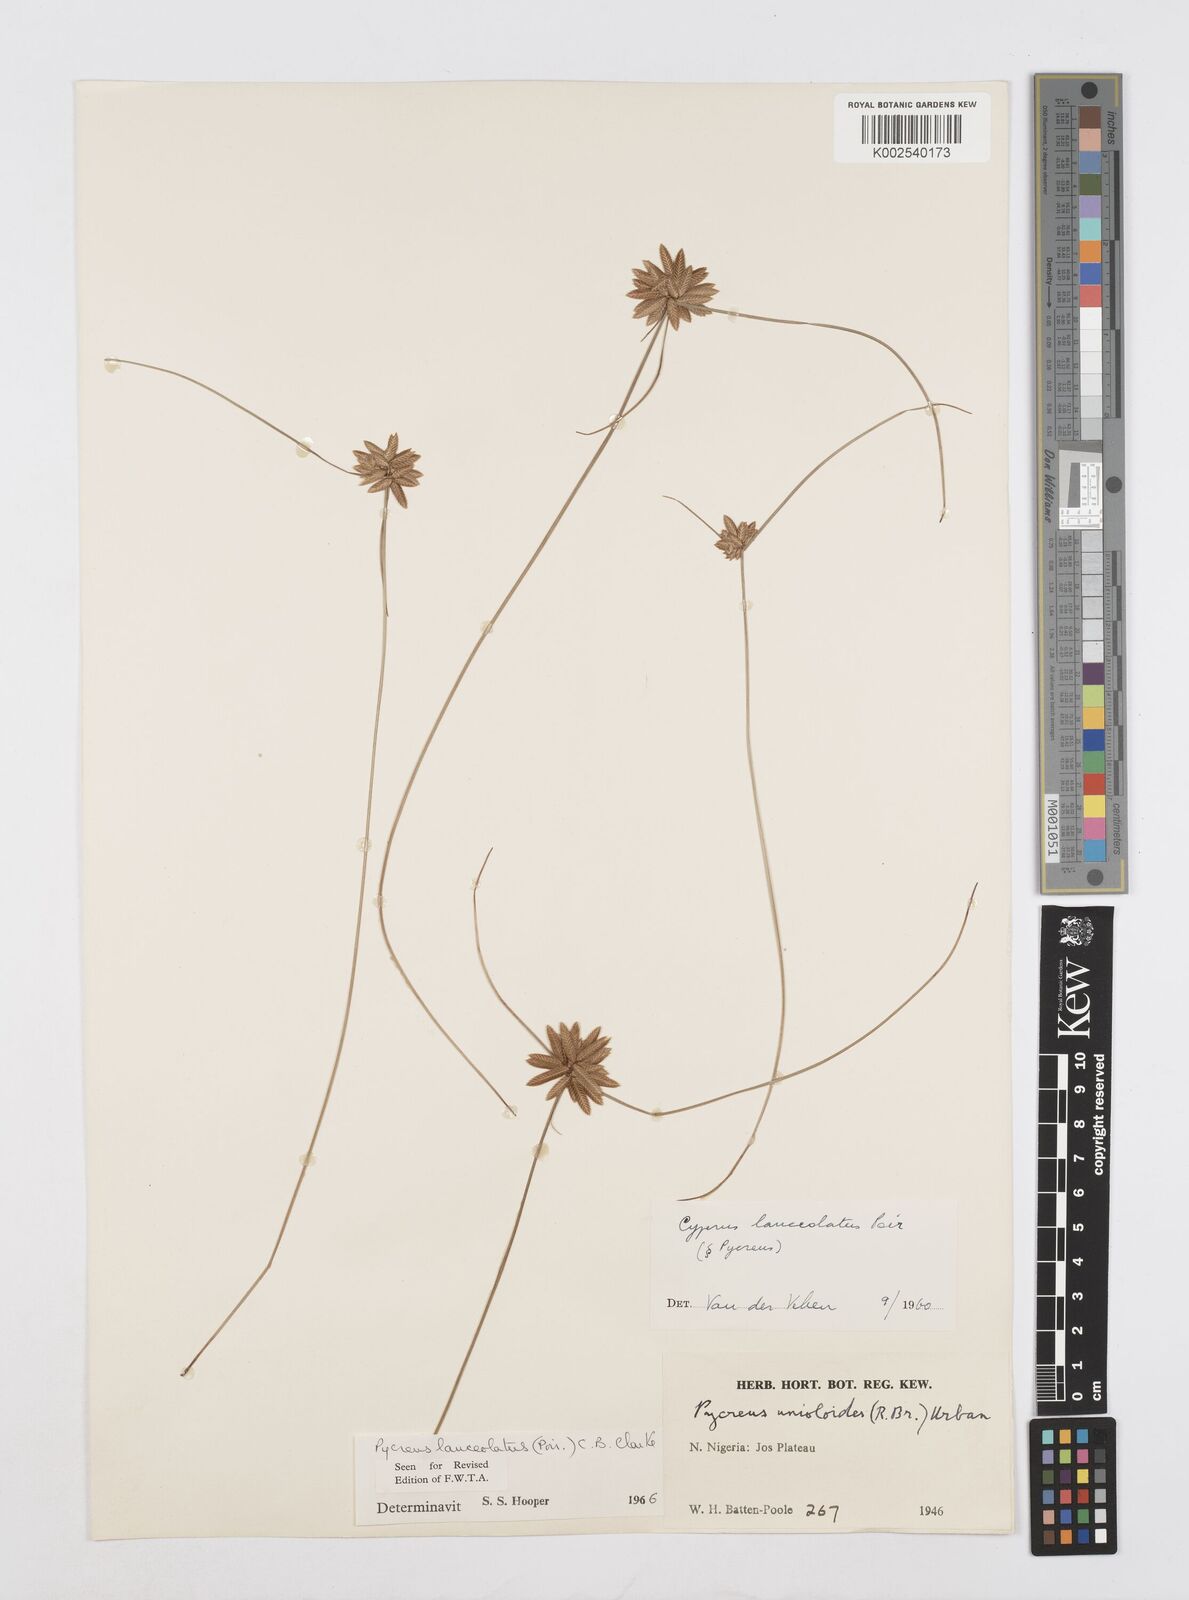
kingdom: Plantae
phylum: Tracheophyta
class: Liliopsida
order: Poales
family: Cyperaceae
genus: Cyperus
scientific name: Cyperus
